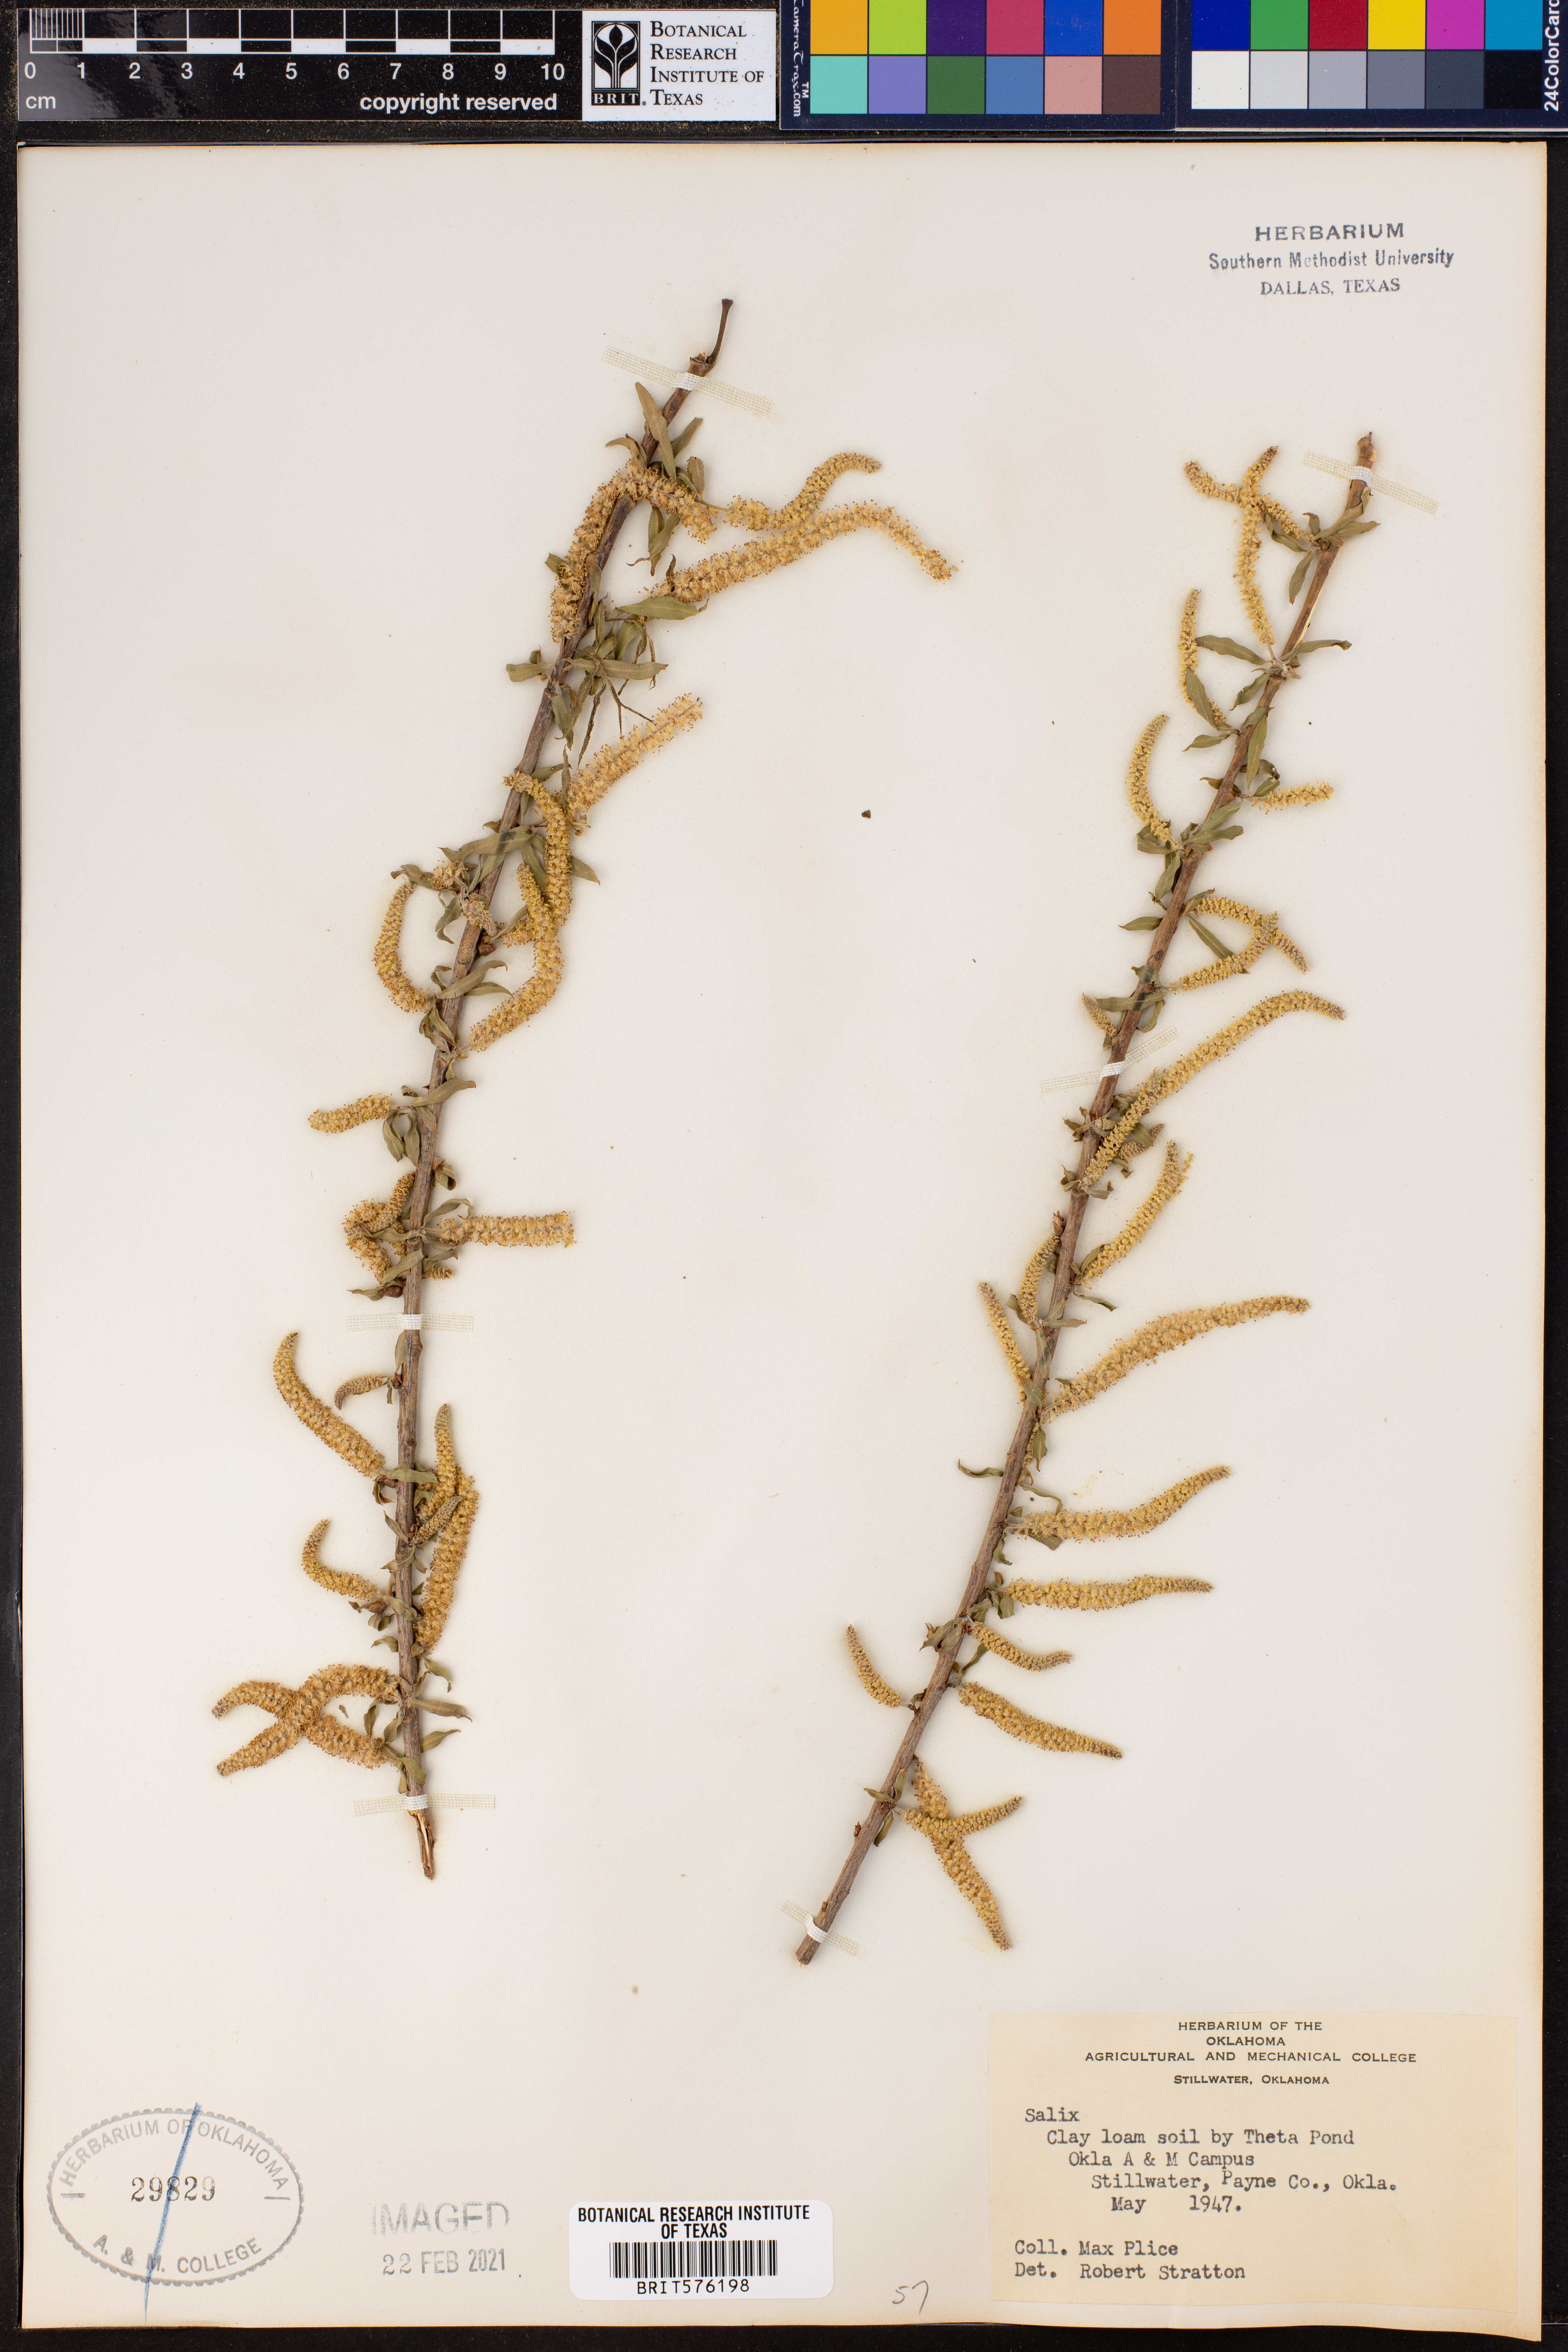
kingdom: Plantae
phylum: Tracheophyta
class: Magnoliopsida
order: Malpighiales
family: Salicaceae
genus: Salix
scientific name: Salix
